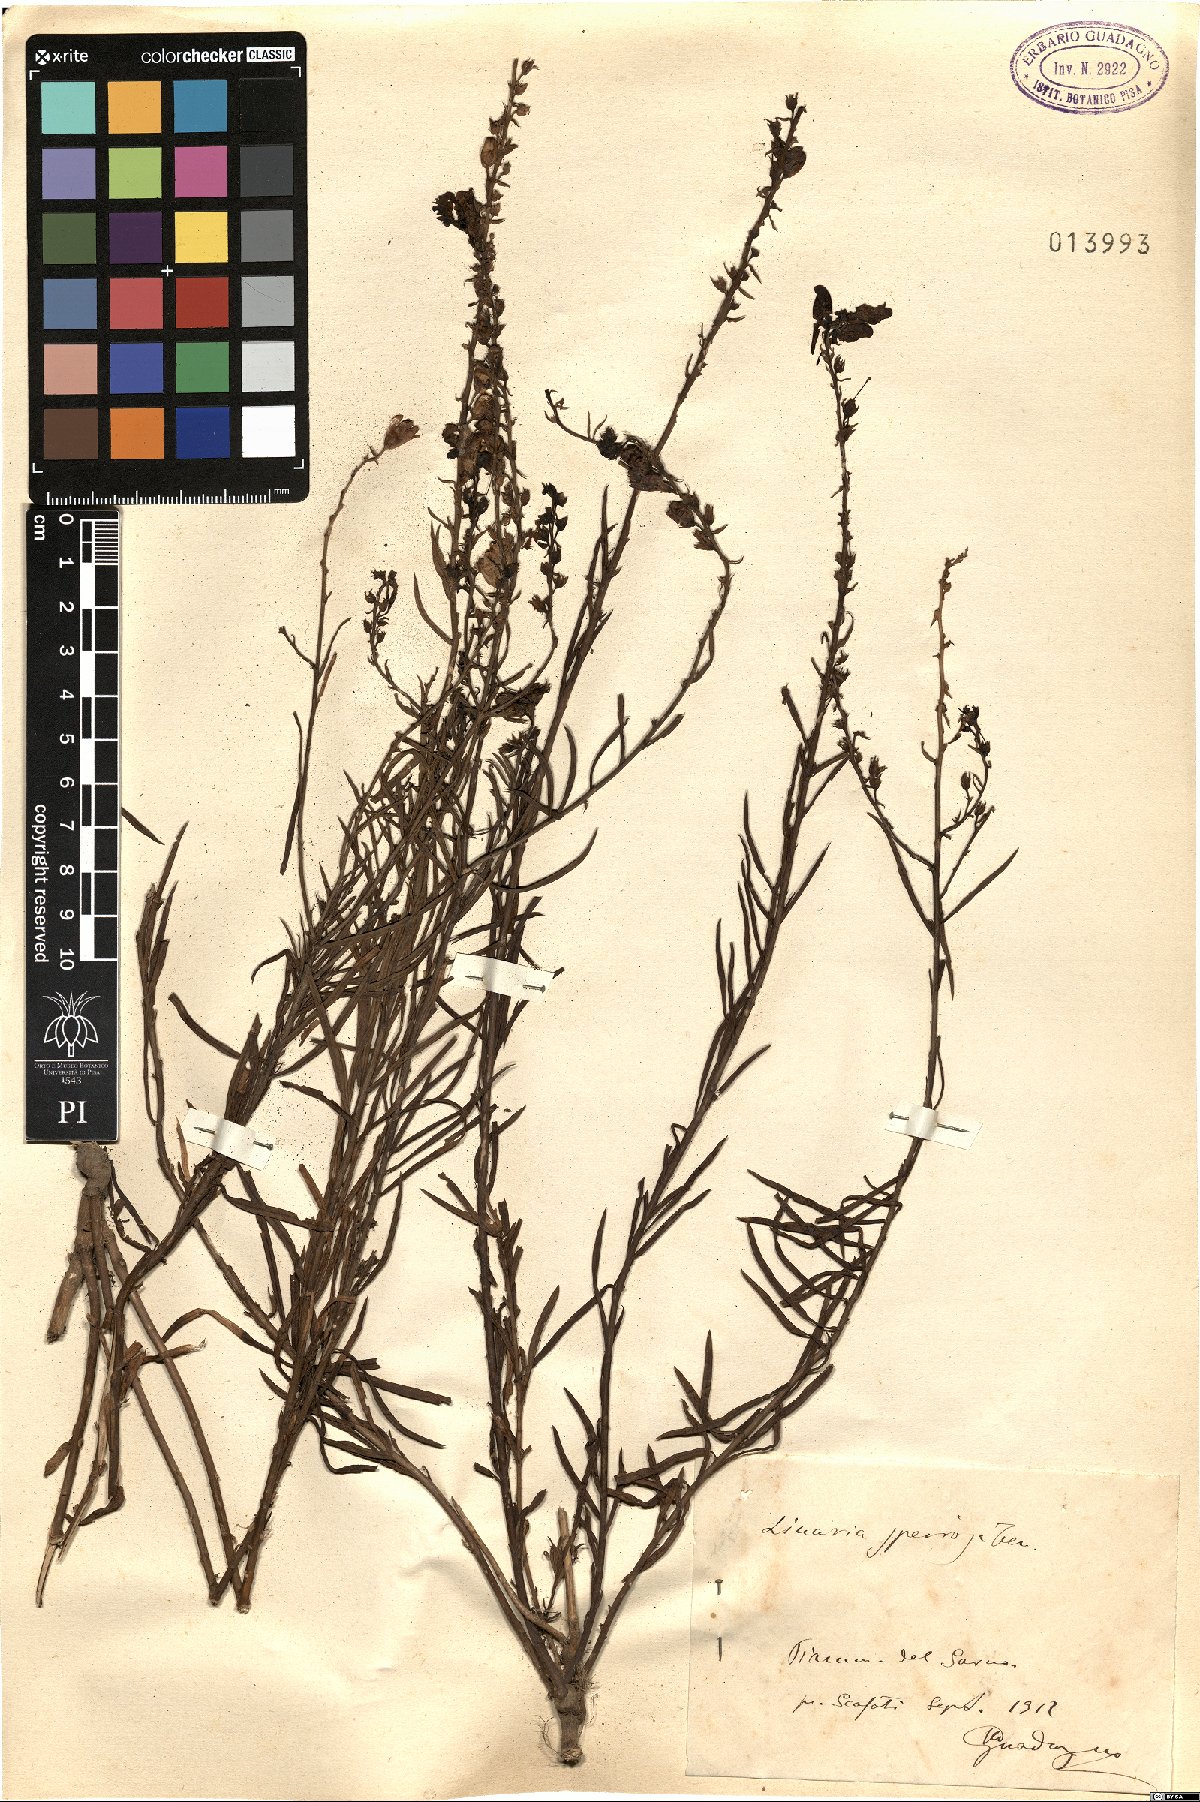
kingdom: Plantae
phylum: Tracheophyta
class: Magnoliopsida
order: Lamiales
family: Plantaginaceae
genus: Linaria
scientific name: Linaria vulgaris
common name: Butter and eggs
